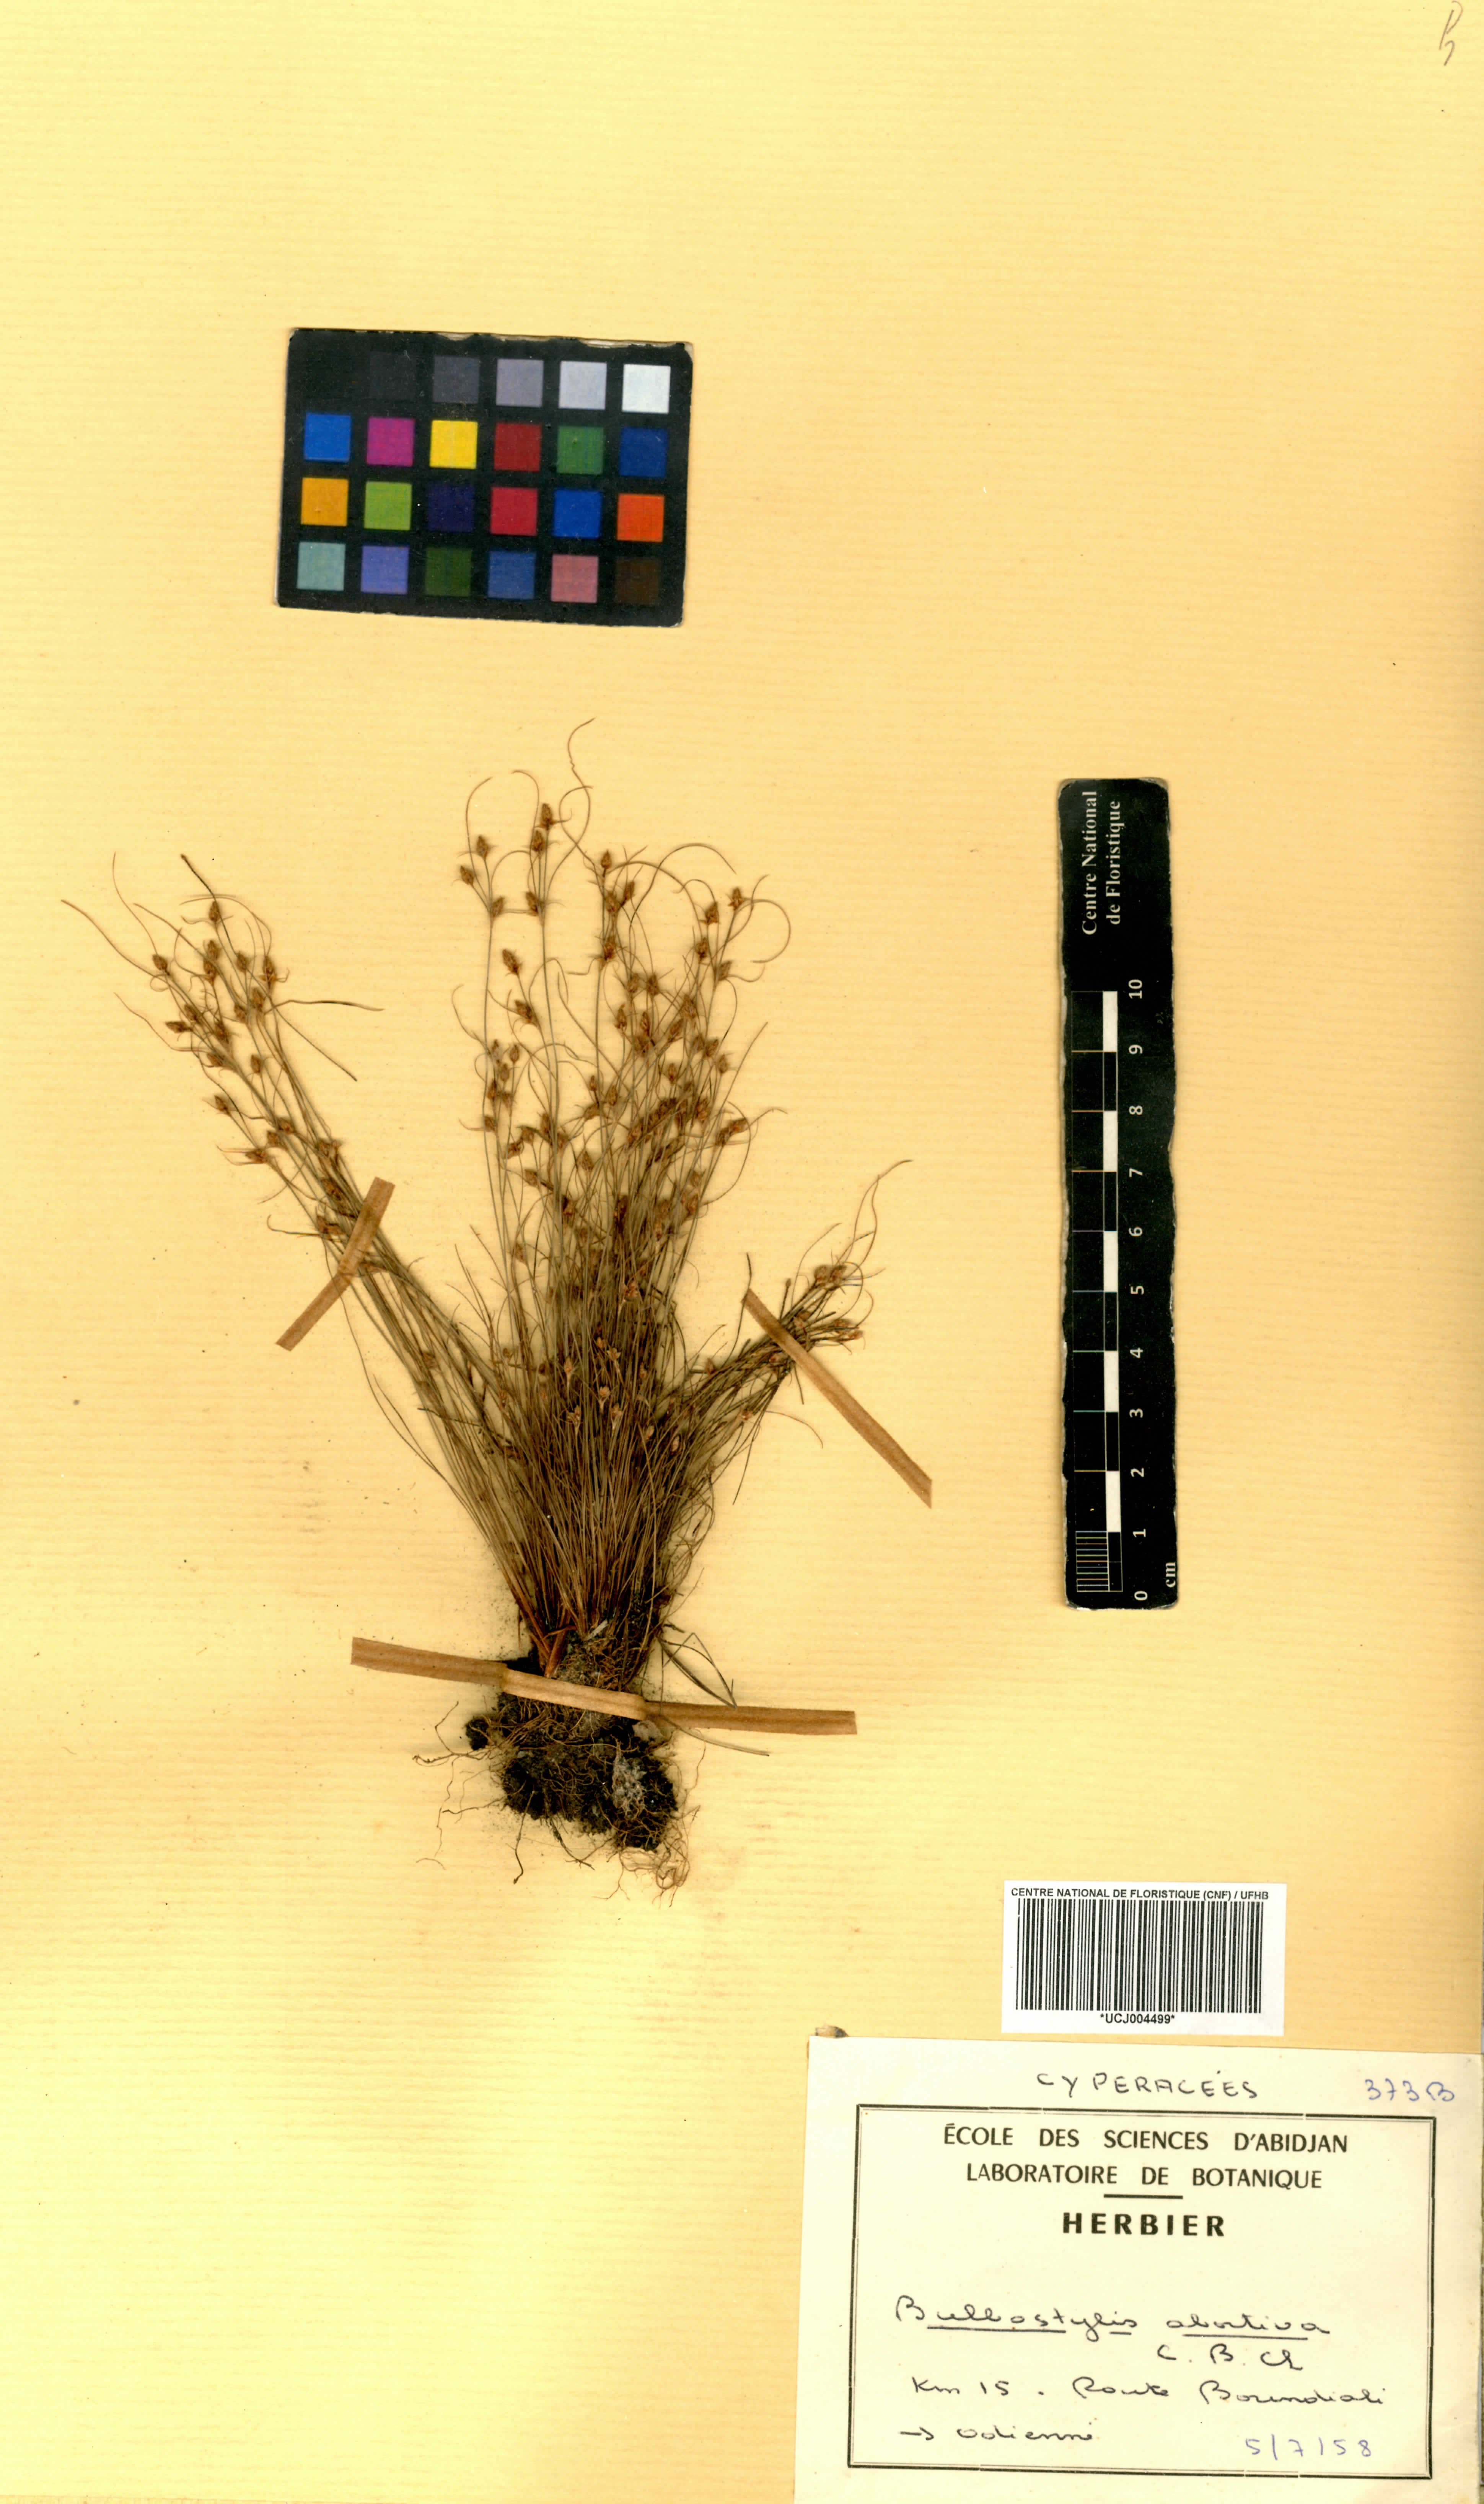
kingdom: Plantae
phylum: Tracheophyta
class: Liliopsida
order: Poales
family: Cyperaceae
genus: Bulbostylis
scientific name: Bulbostylis abortiva
